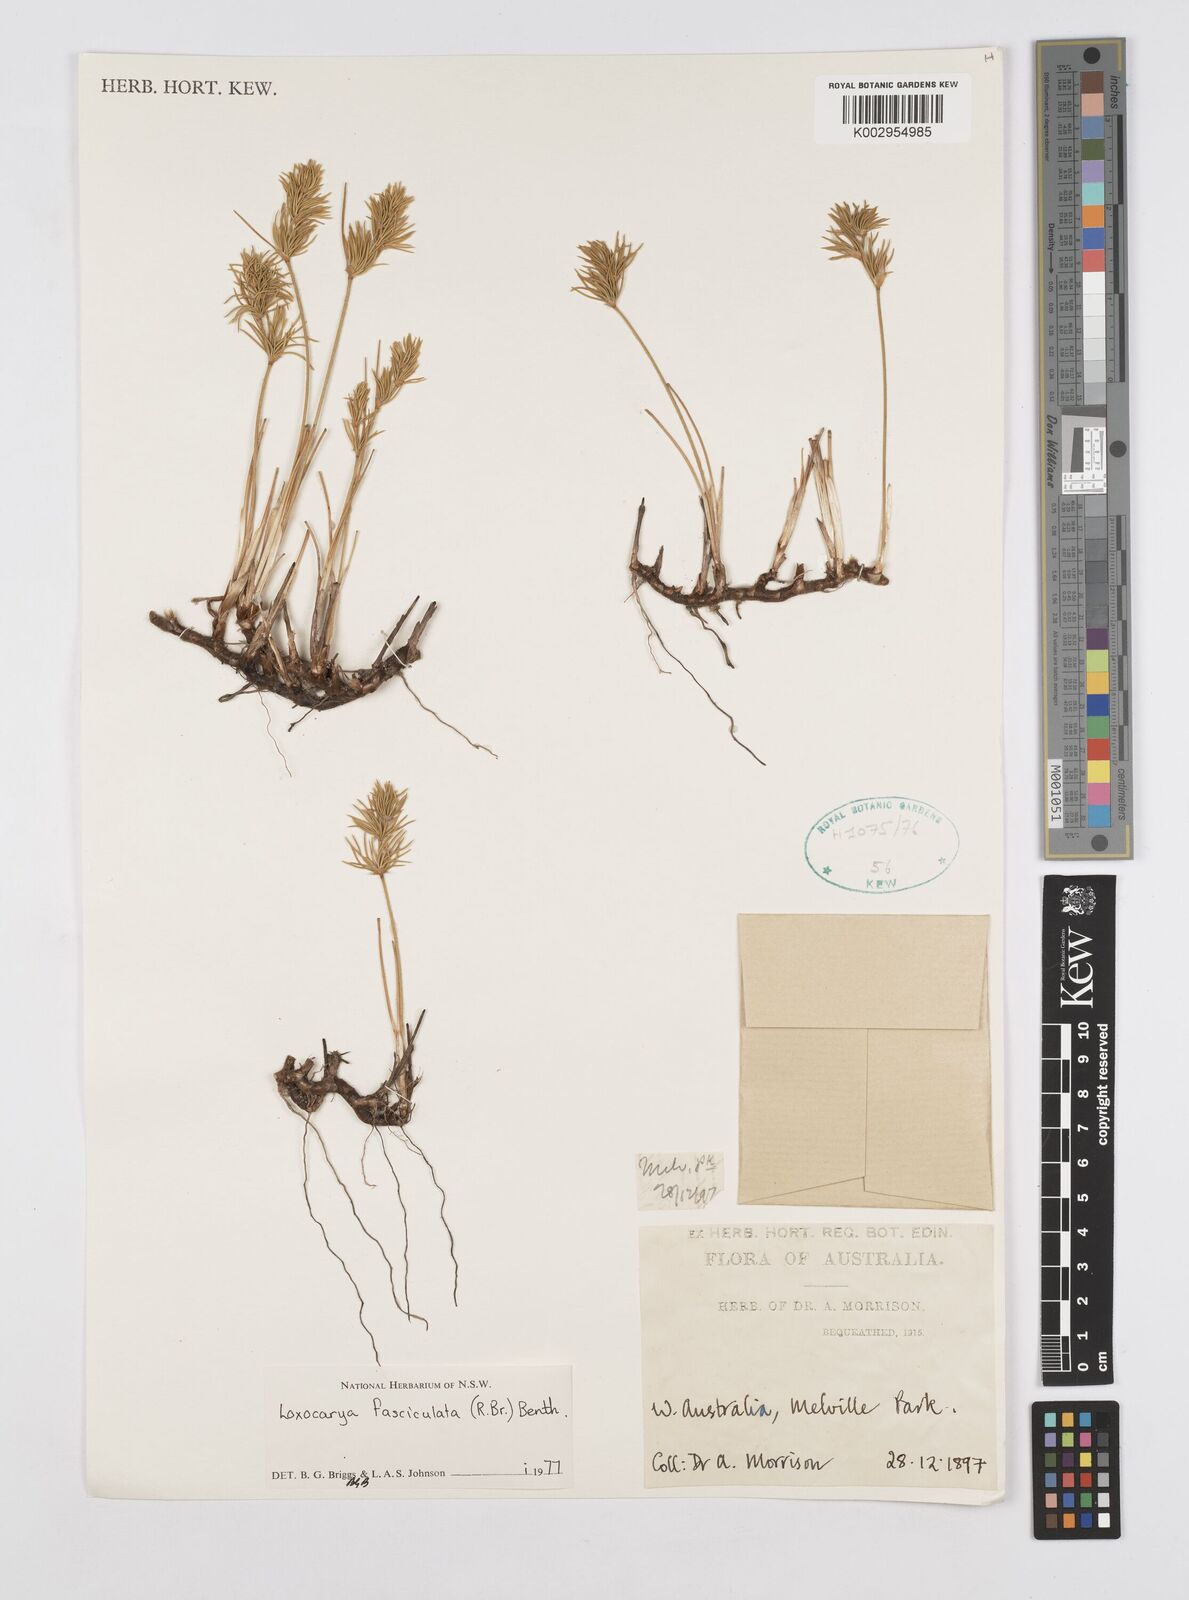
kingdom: Plantae
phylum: Tracheophyta
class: Liliopsida
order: Poales
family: Restionaceae
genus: Desmocladus
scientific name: Desmocladus fasciculatus
